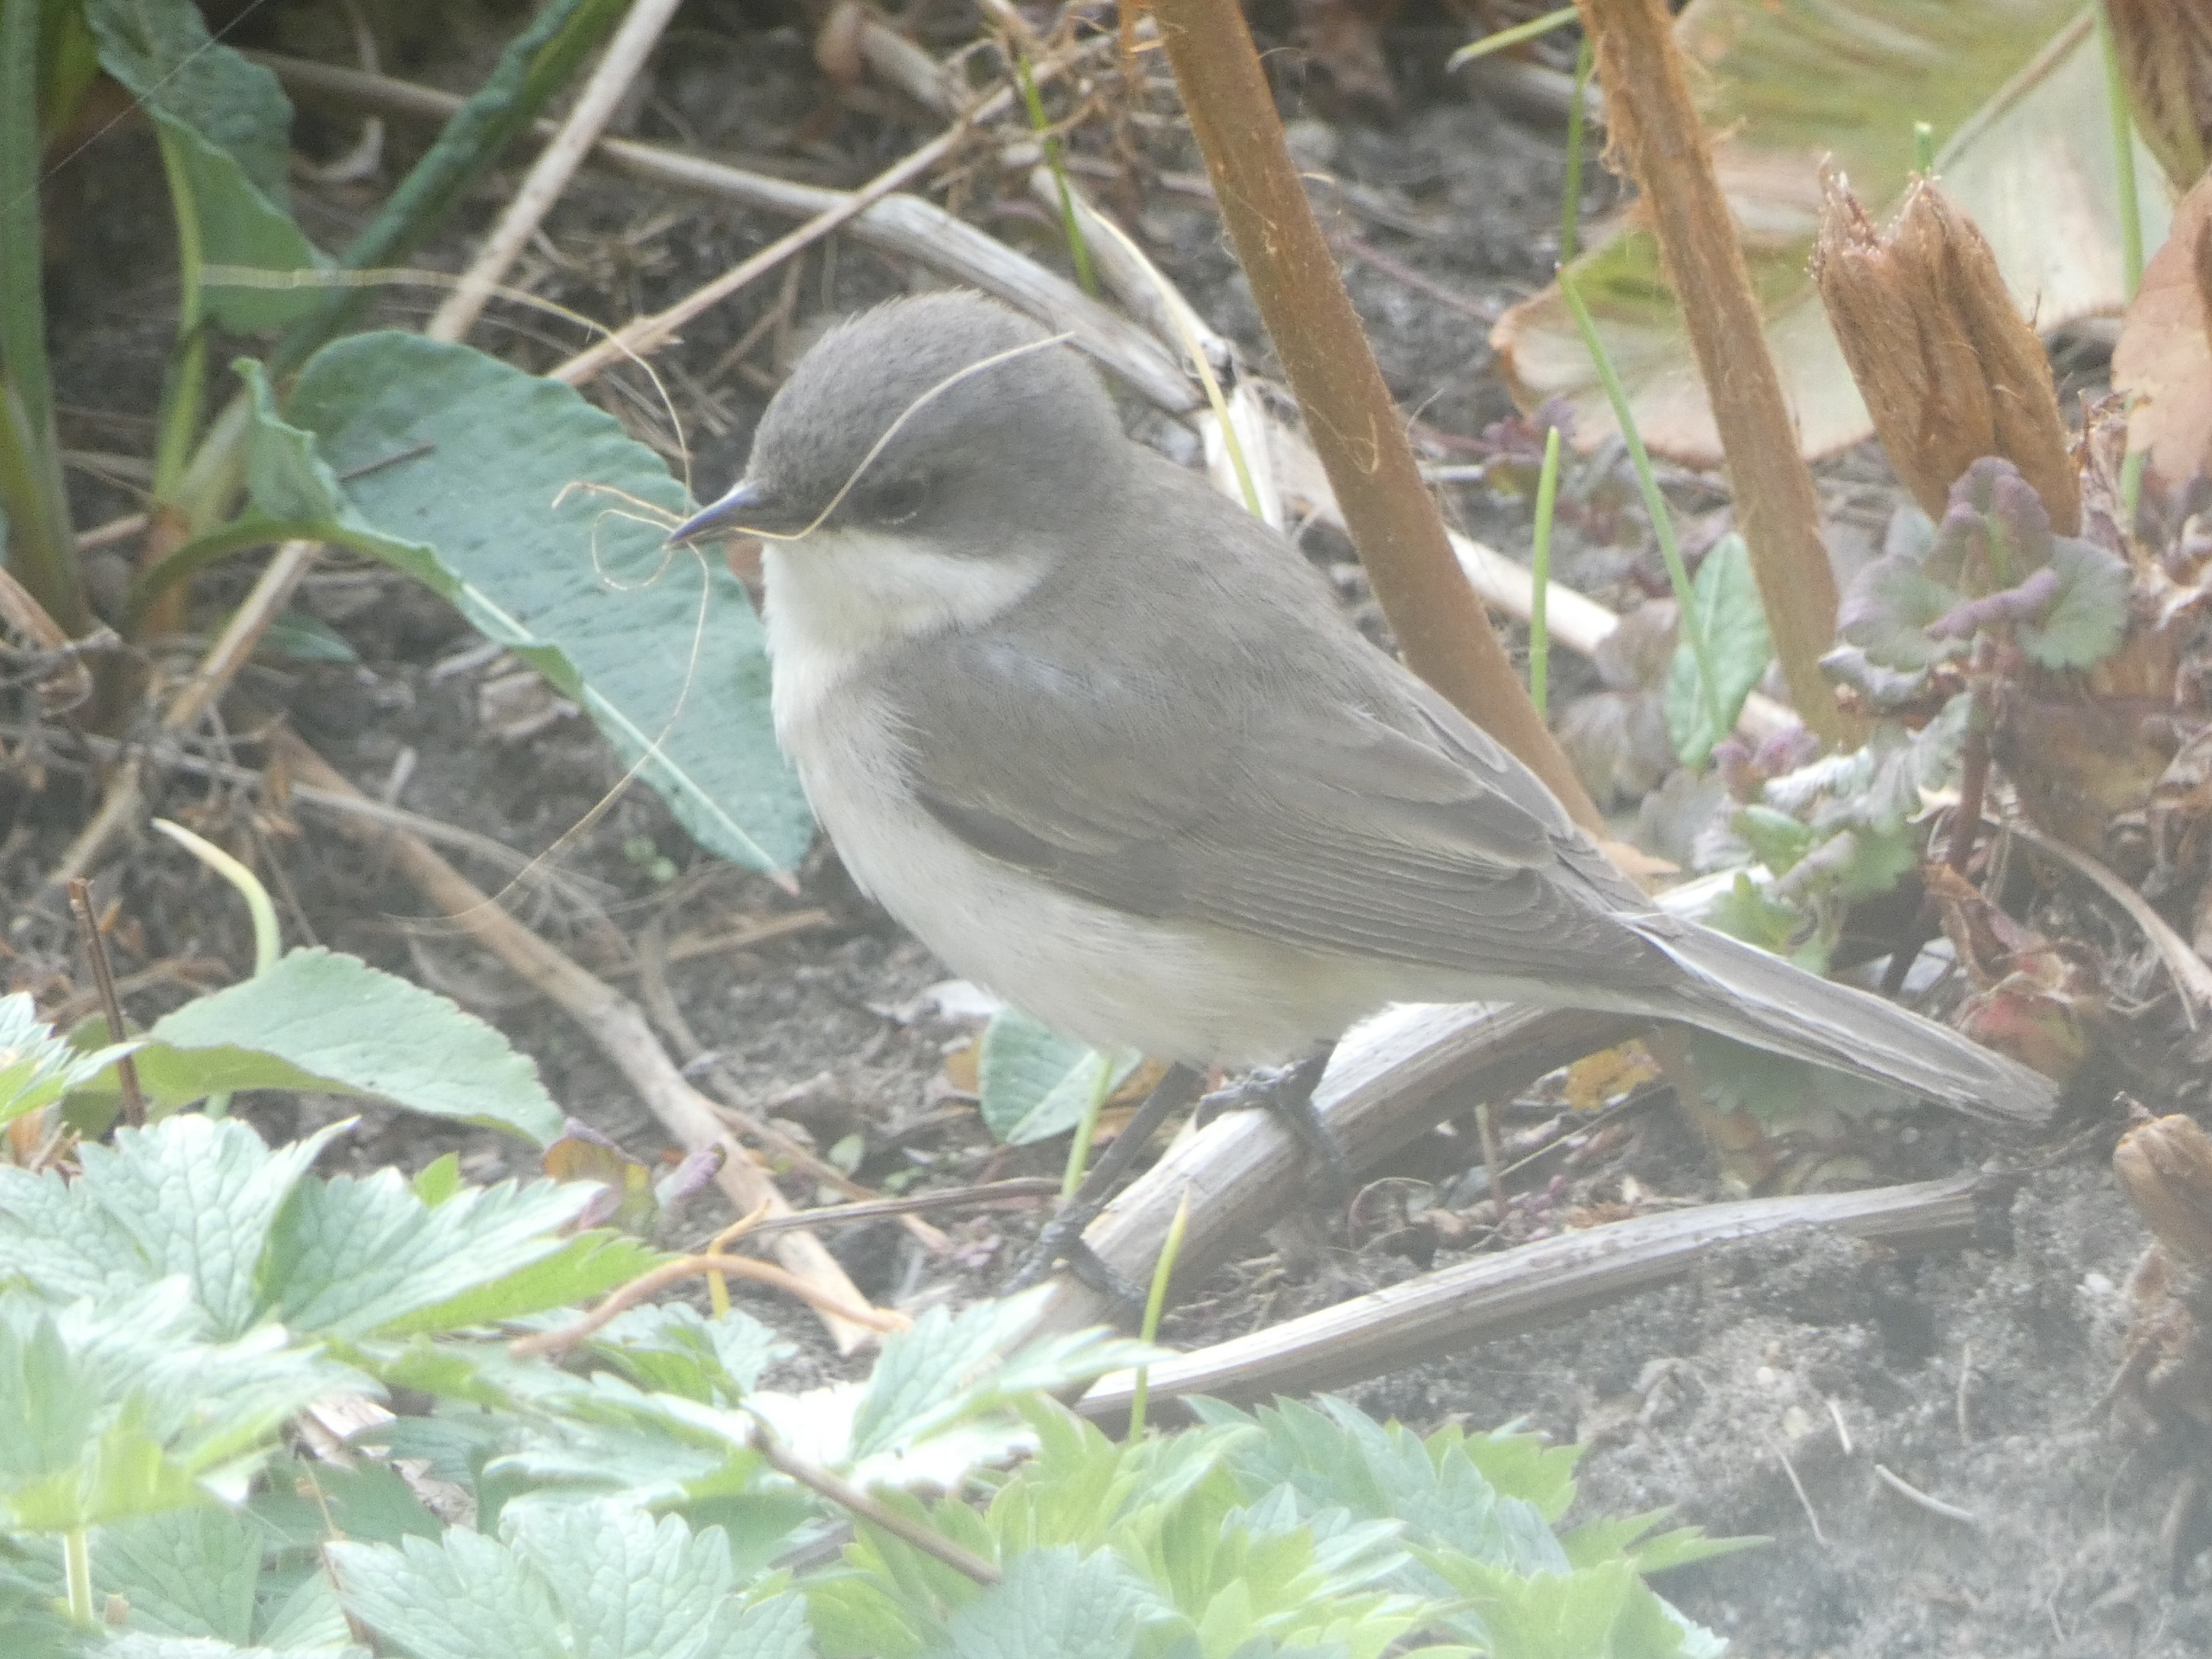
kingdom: Animalia
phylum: Chordata
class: Aves
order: Passeriformes
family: Sylviidae
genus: Sylvia
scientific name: Sylvia curruca
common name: Gærdesanger
